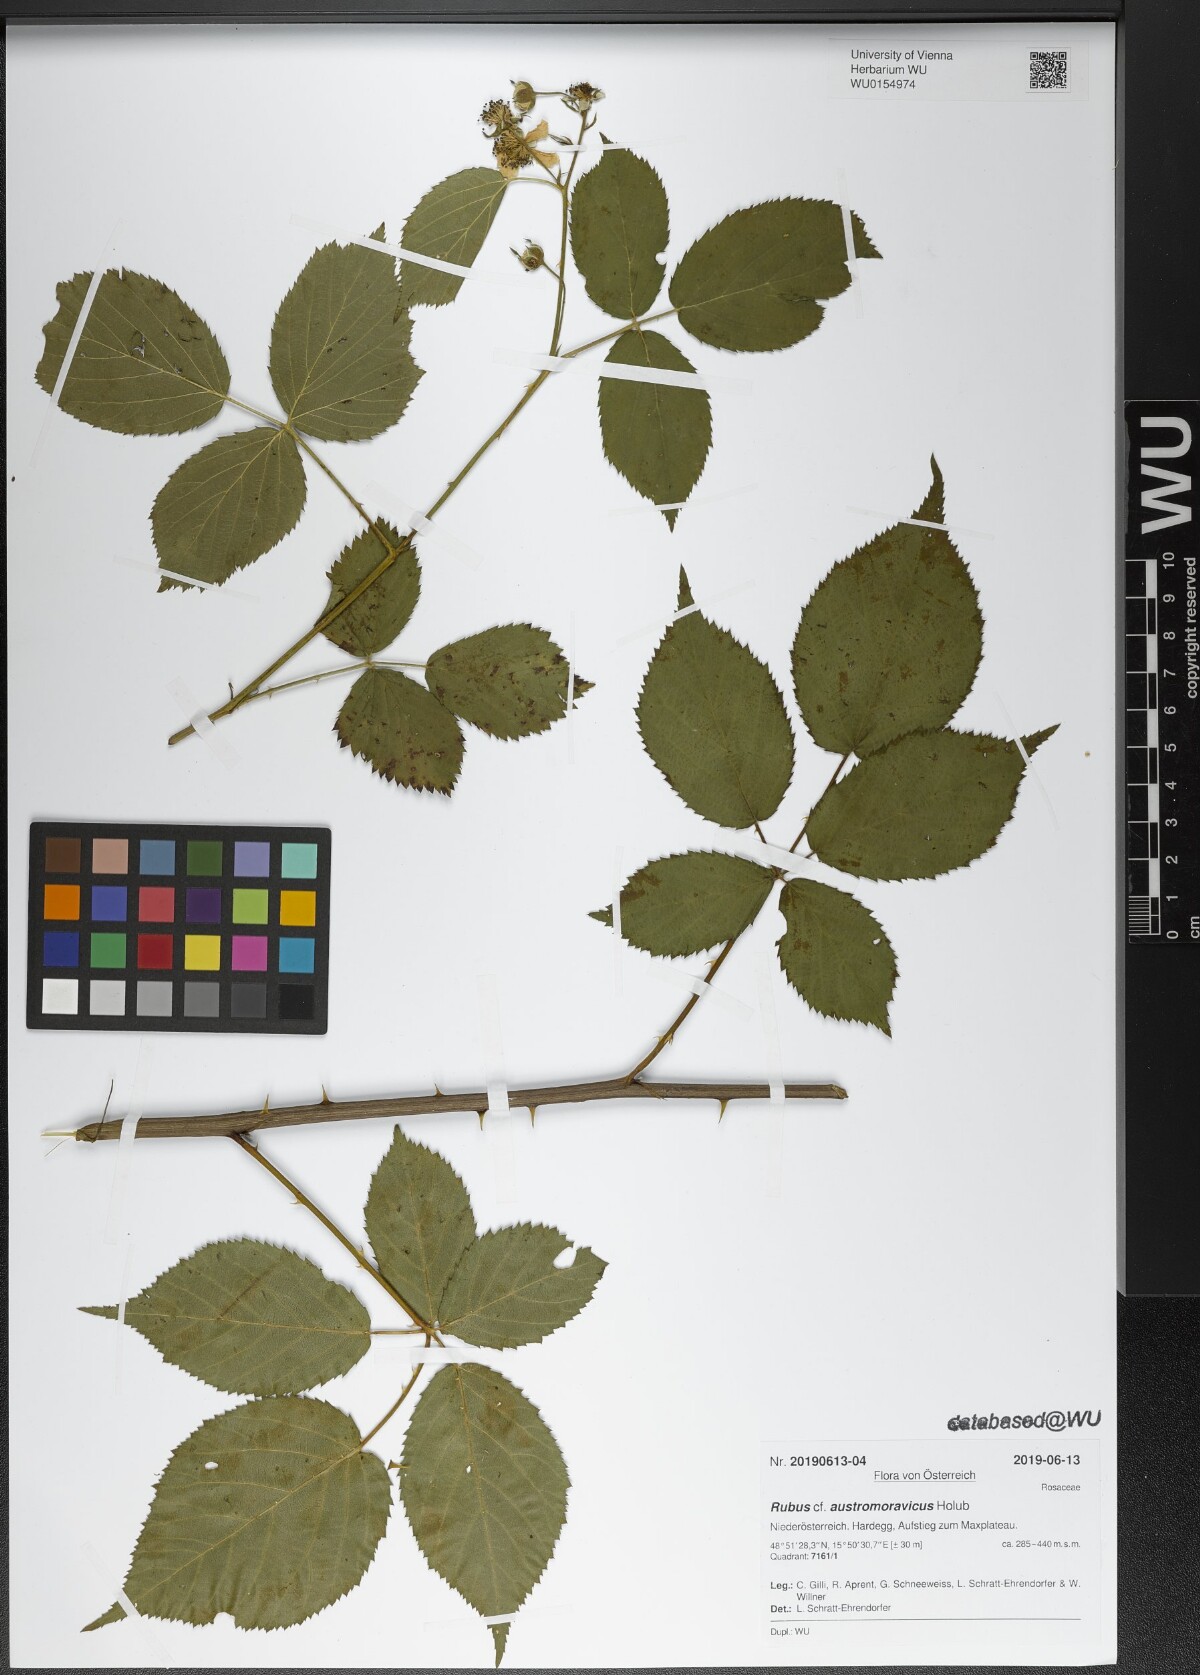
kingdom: Plantae
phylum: Tracheophyta
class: Magnoliopsida
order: Rosales
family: Rosaceae
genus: Rubus
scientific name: Rubus austromoravicus
